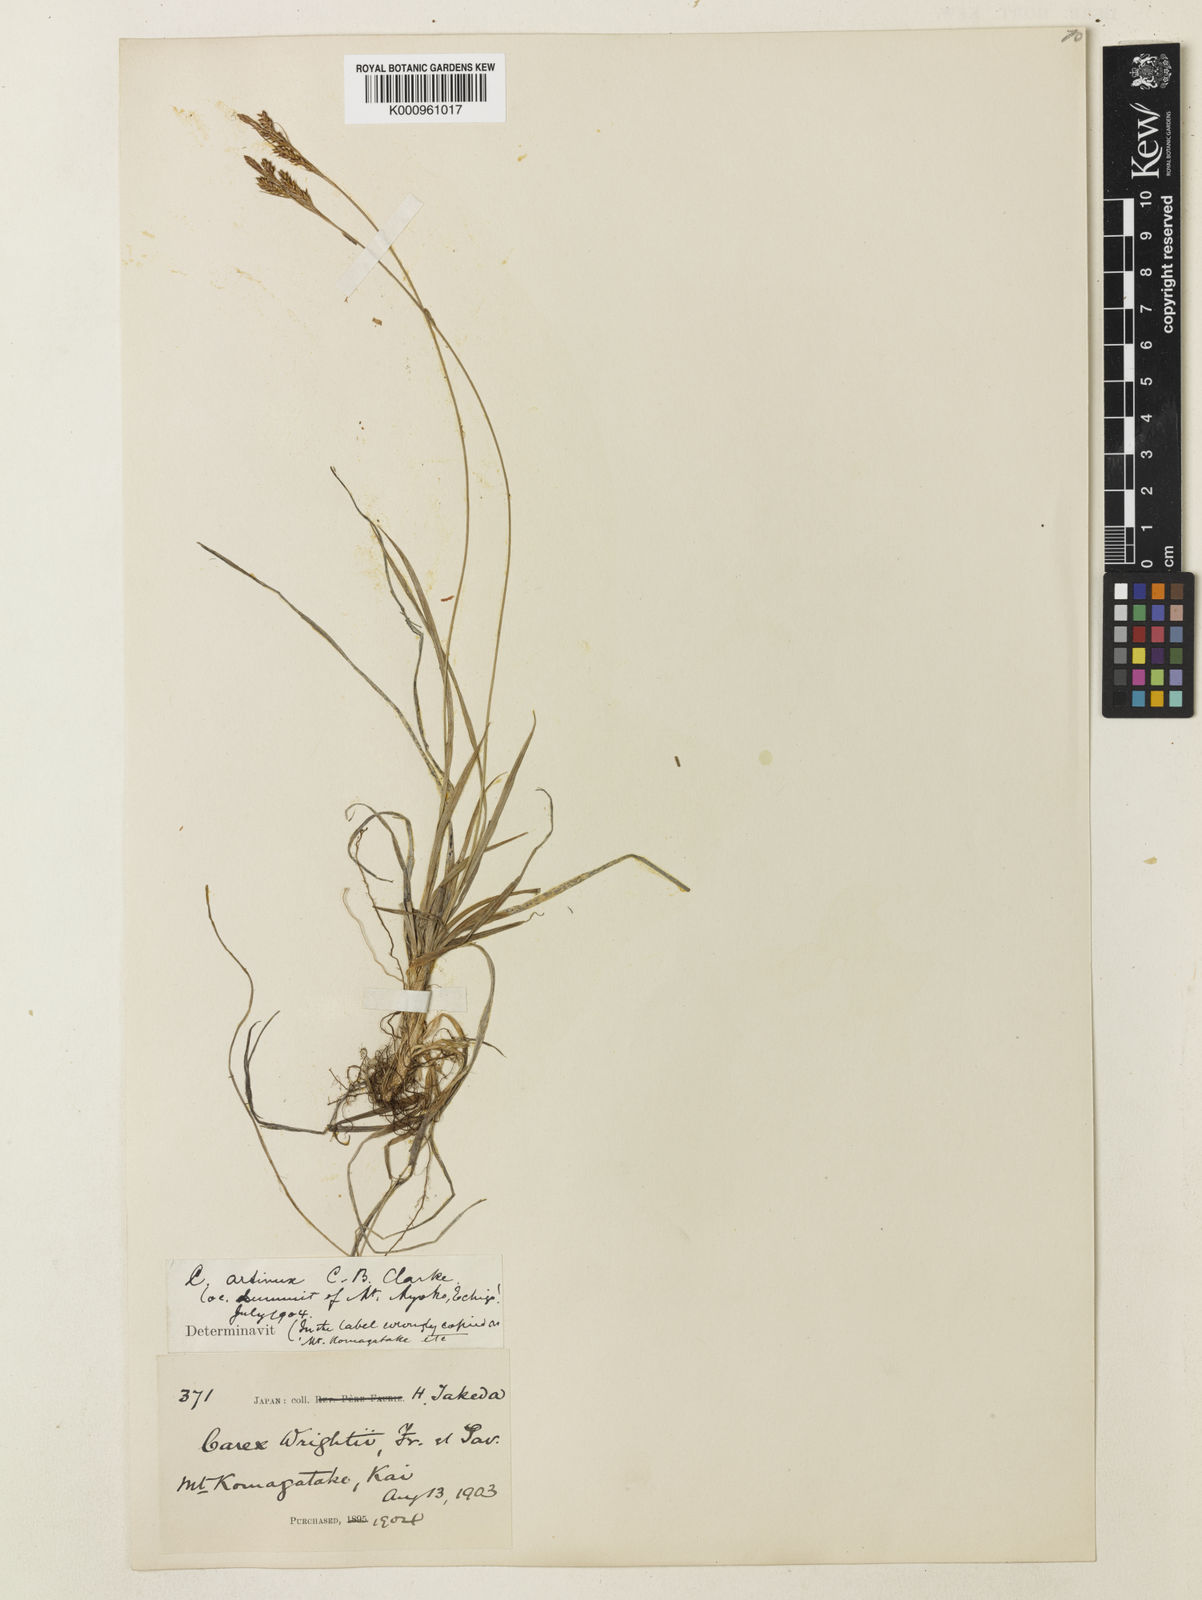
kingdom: Plantae
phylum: Tracheophyta
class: Liliopsida
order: Poales
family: Cyperaceae
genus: Carex
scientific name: Carex pisiformis
